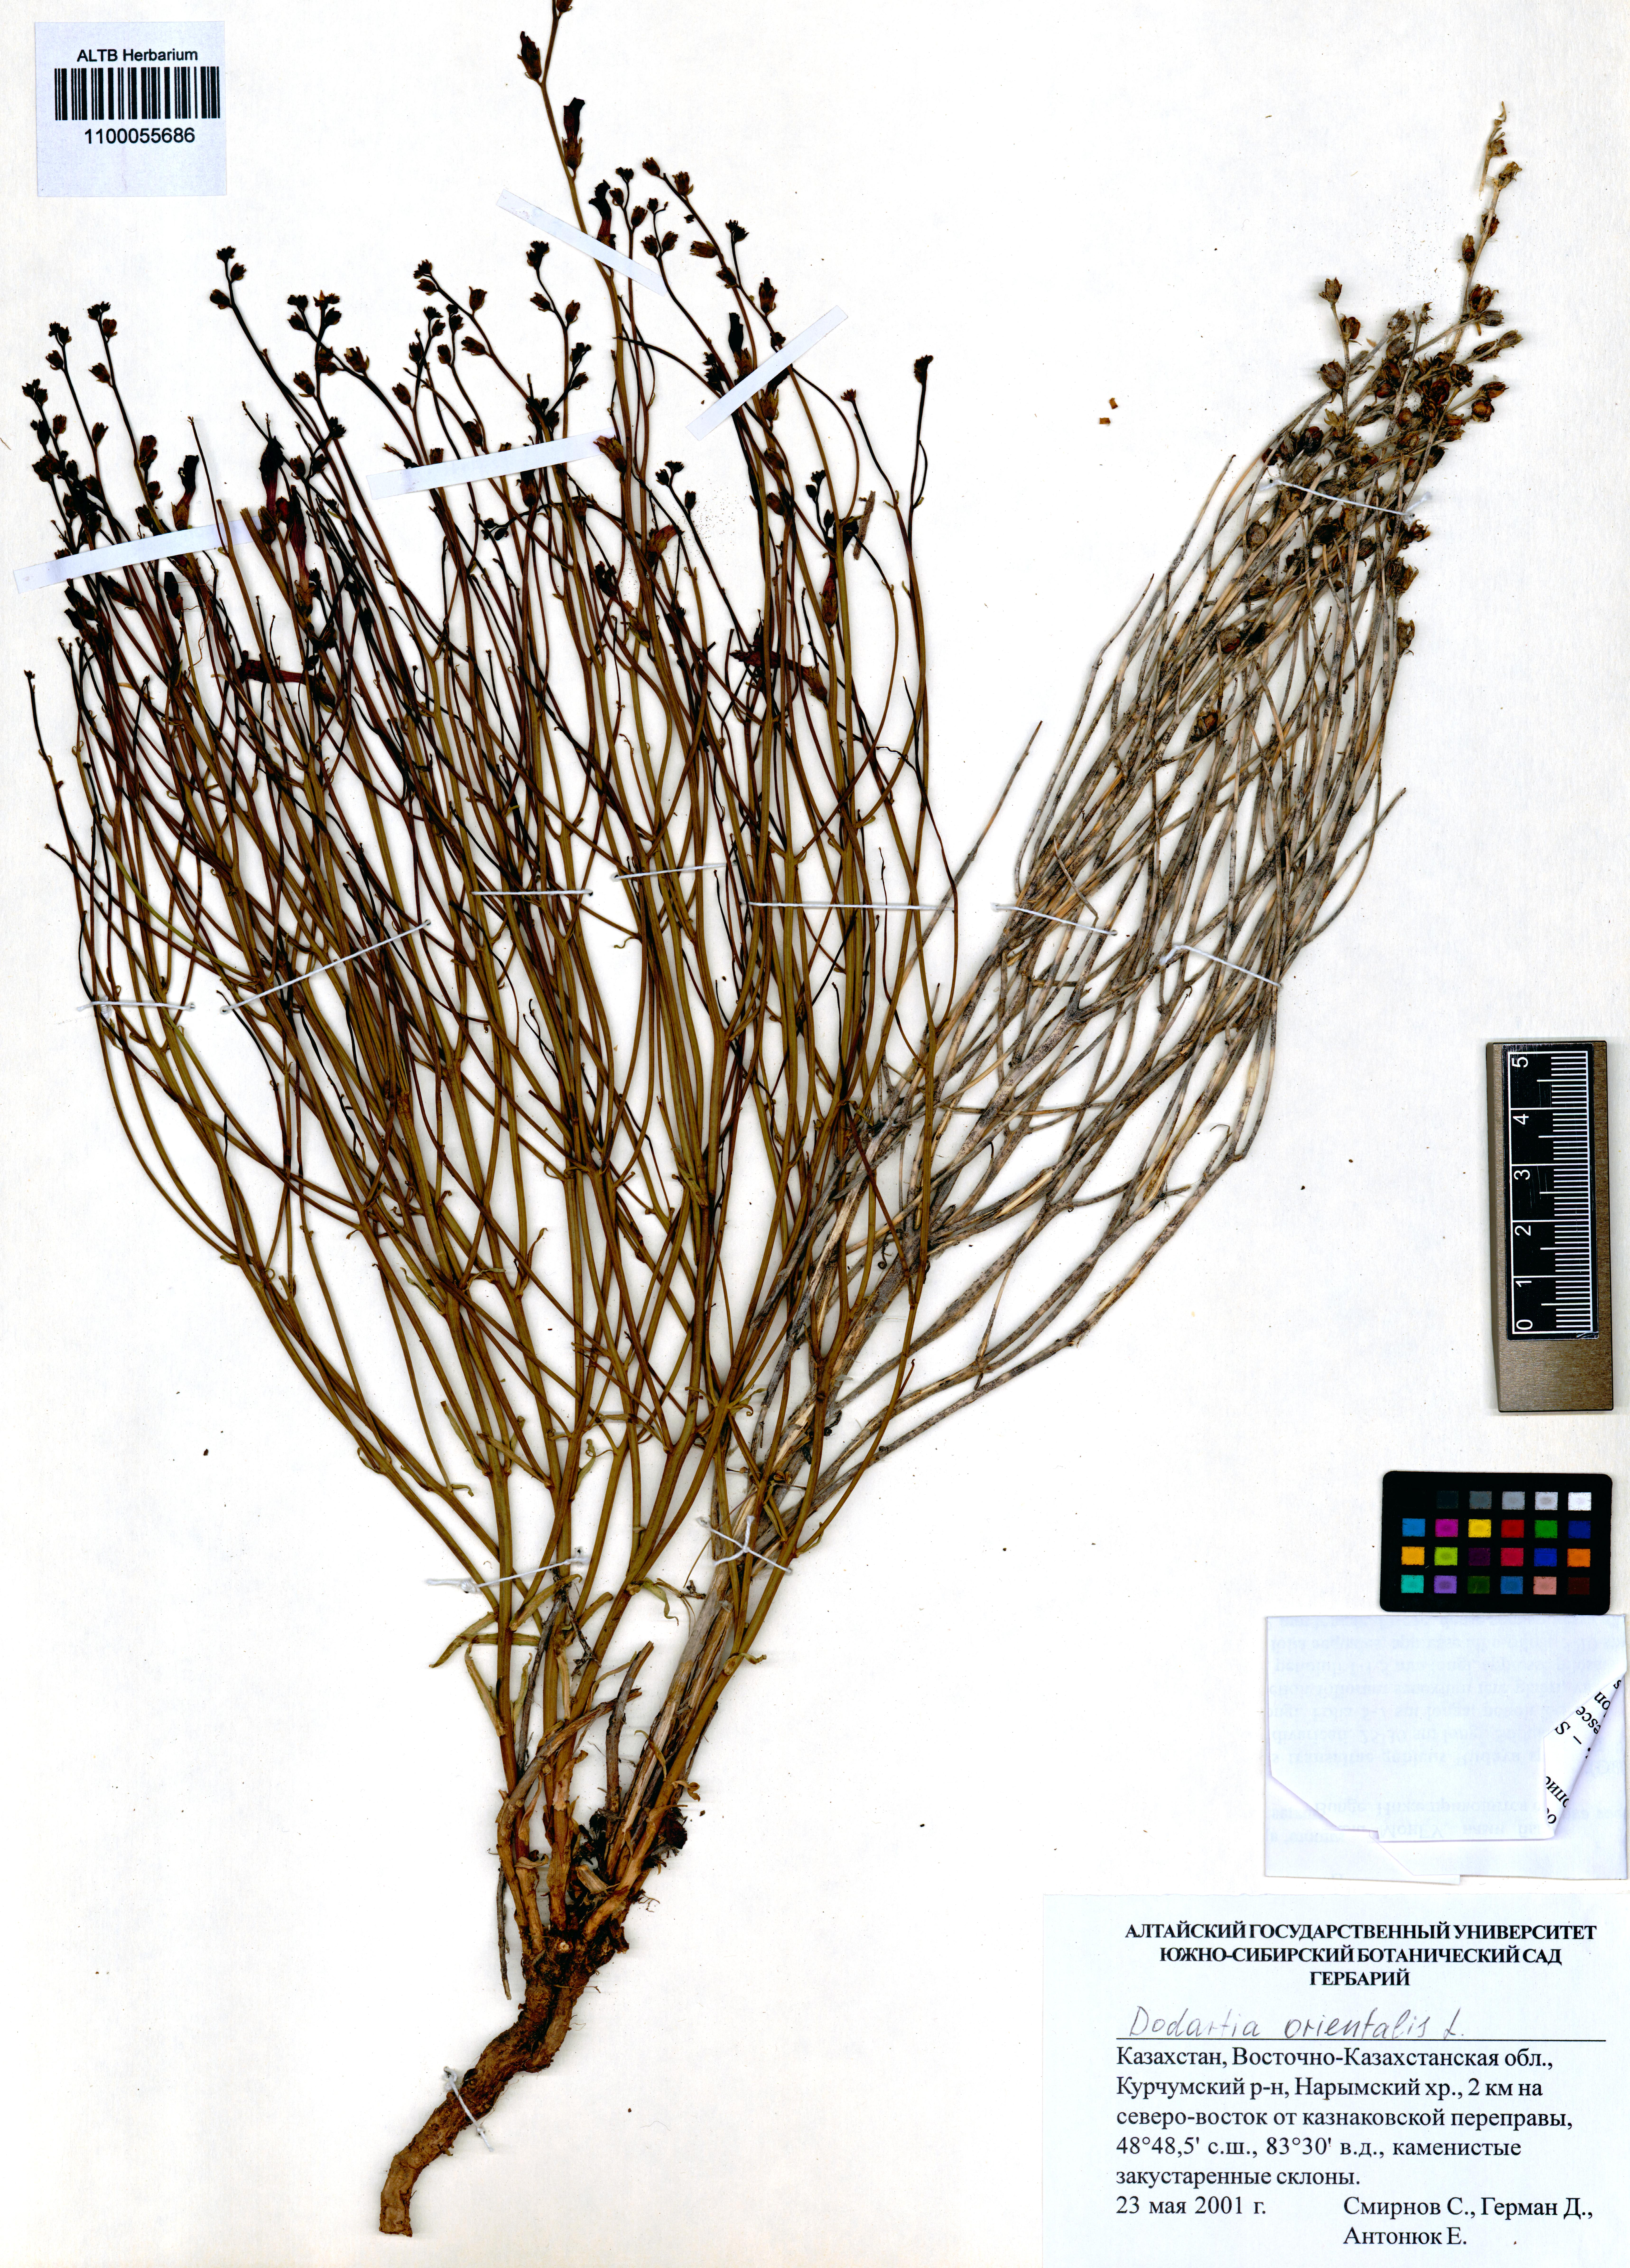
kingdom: Plantae
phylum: Tracheophyta
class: Magnoliopsida
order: Lamiales
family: Mazaceae
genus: Dodartia
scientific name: Dodartia orientalis
